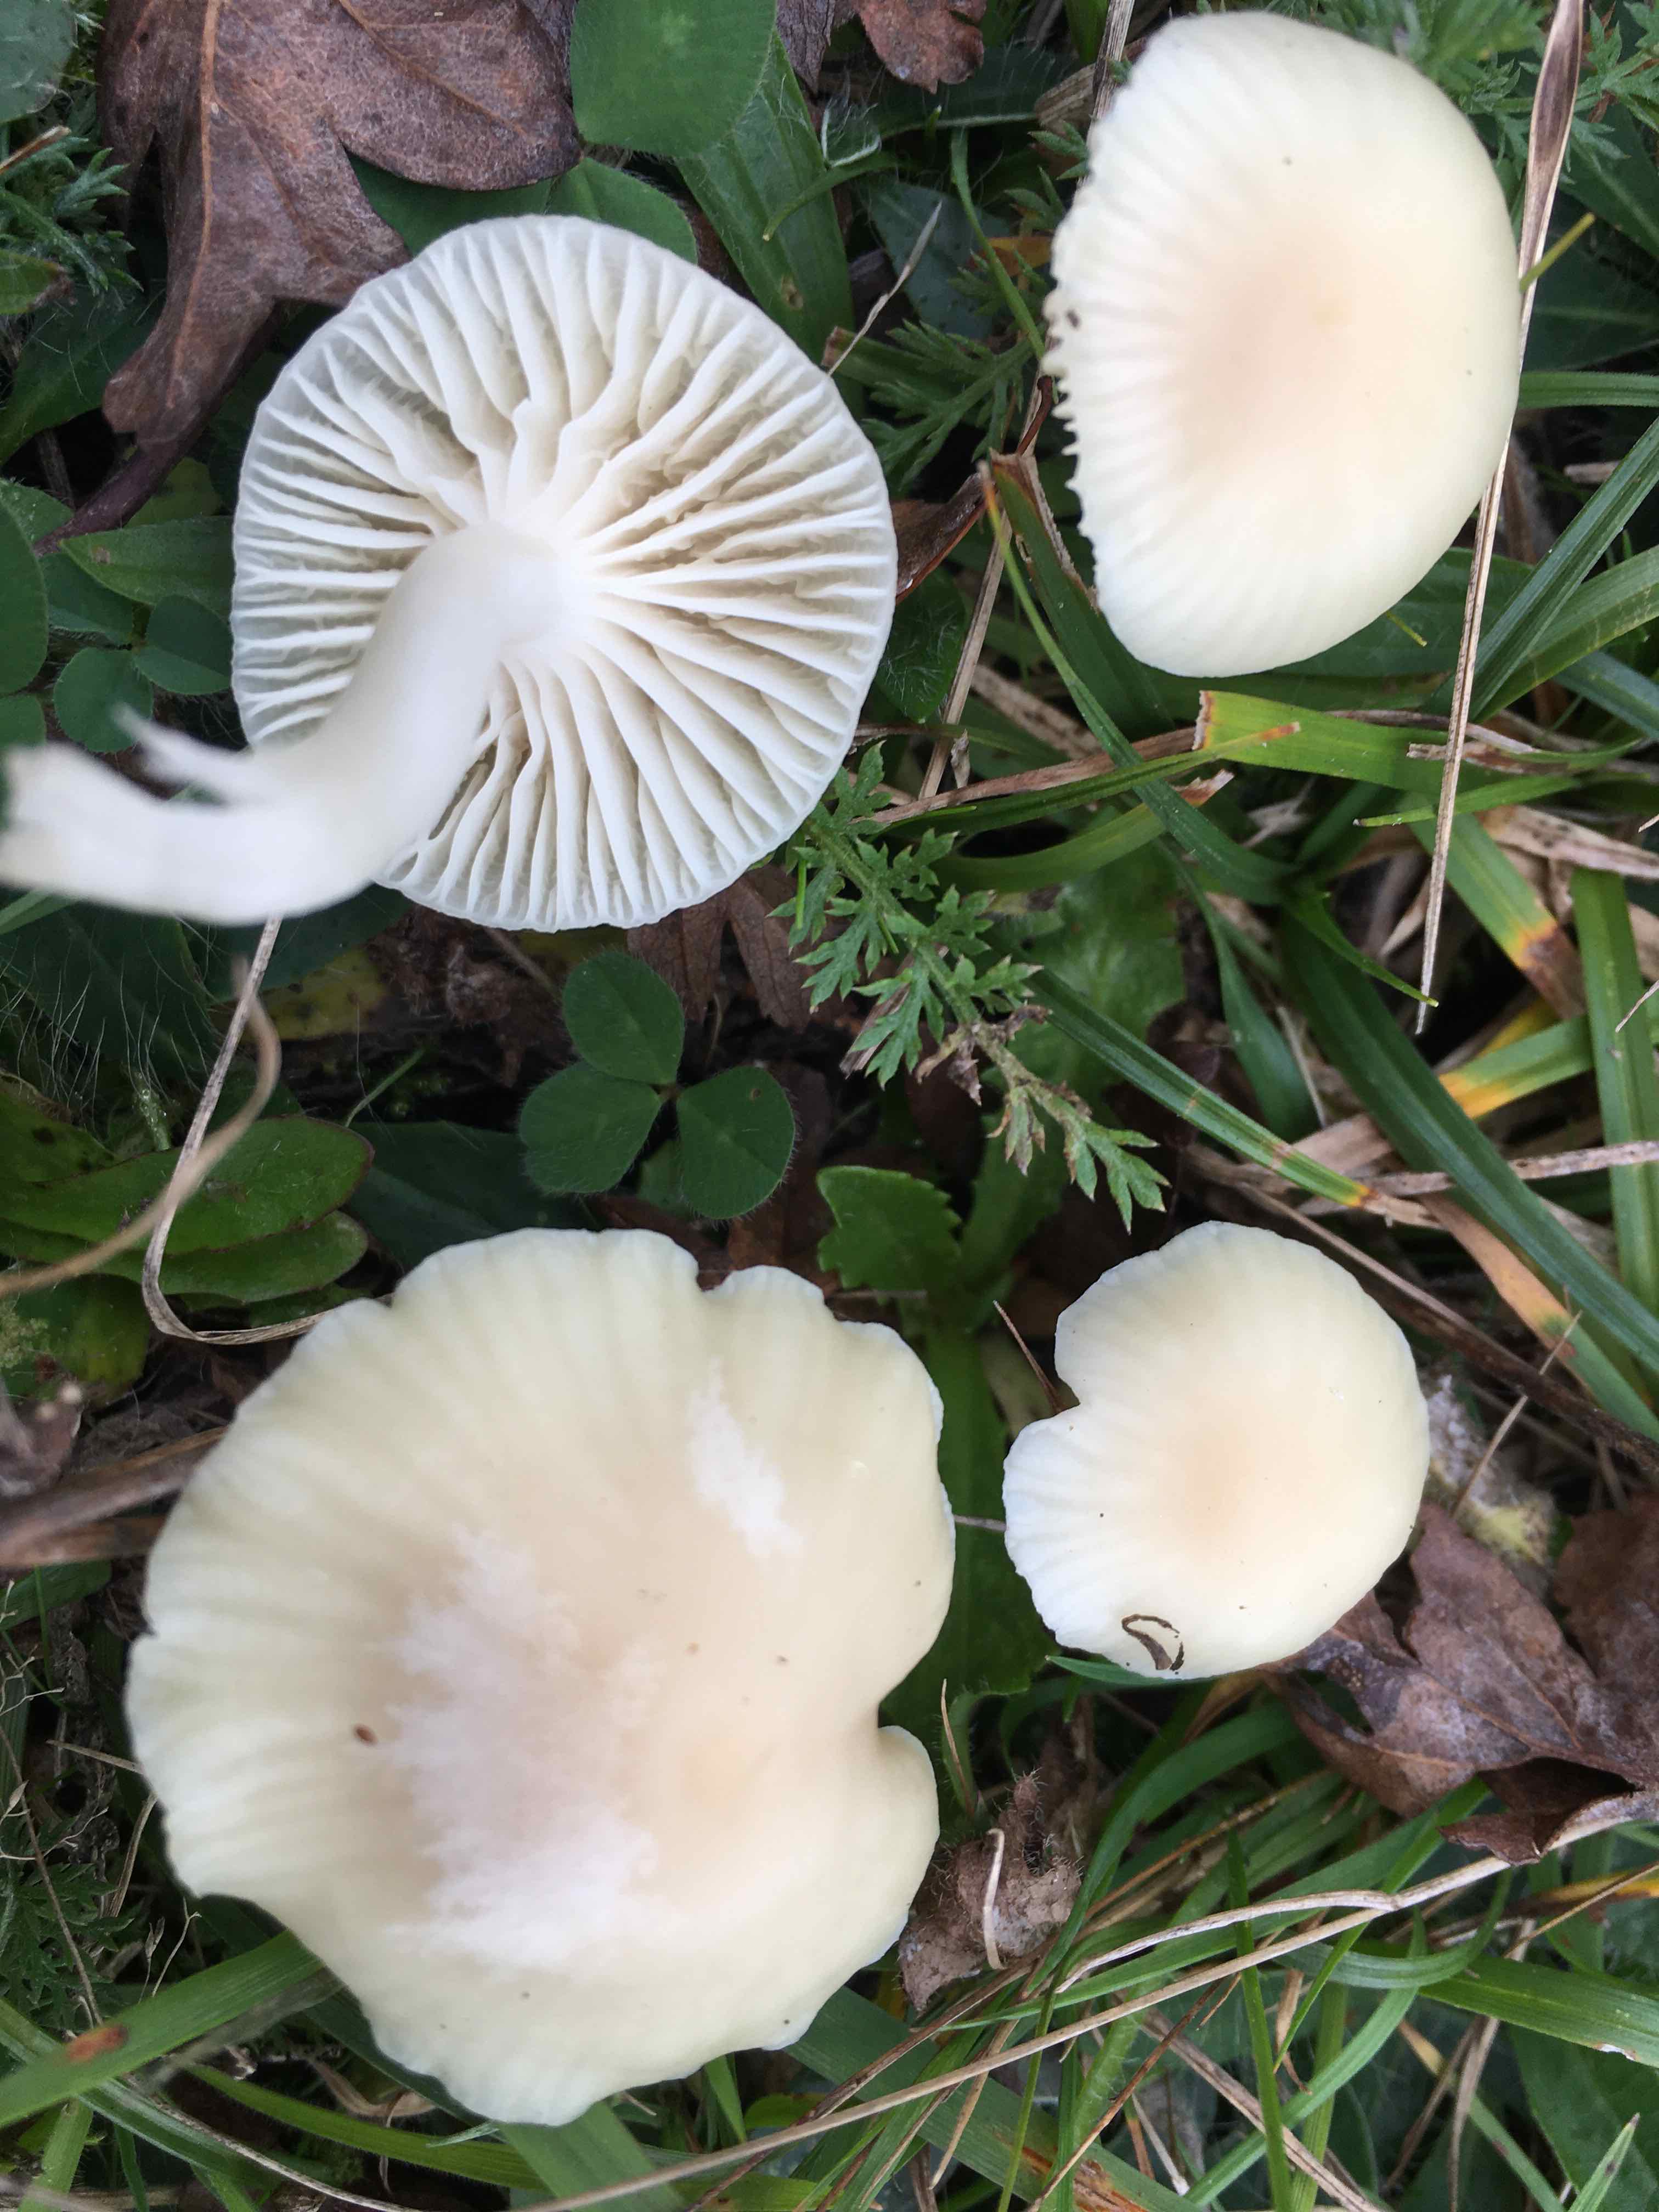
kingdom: Fungi
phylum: Basidiomycota
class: Agaricomycetes
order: Agaricales
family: Hygrophoraceae
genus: Cuphophyllus
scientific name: Cuphophyllus
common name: vokshat
